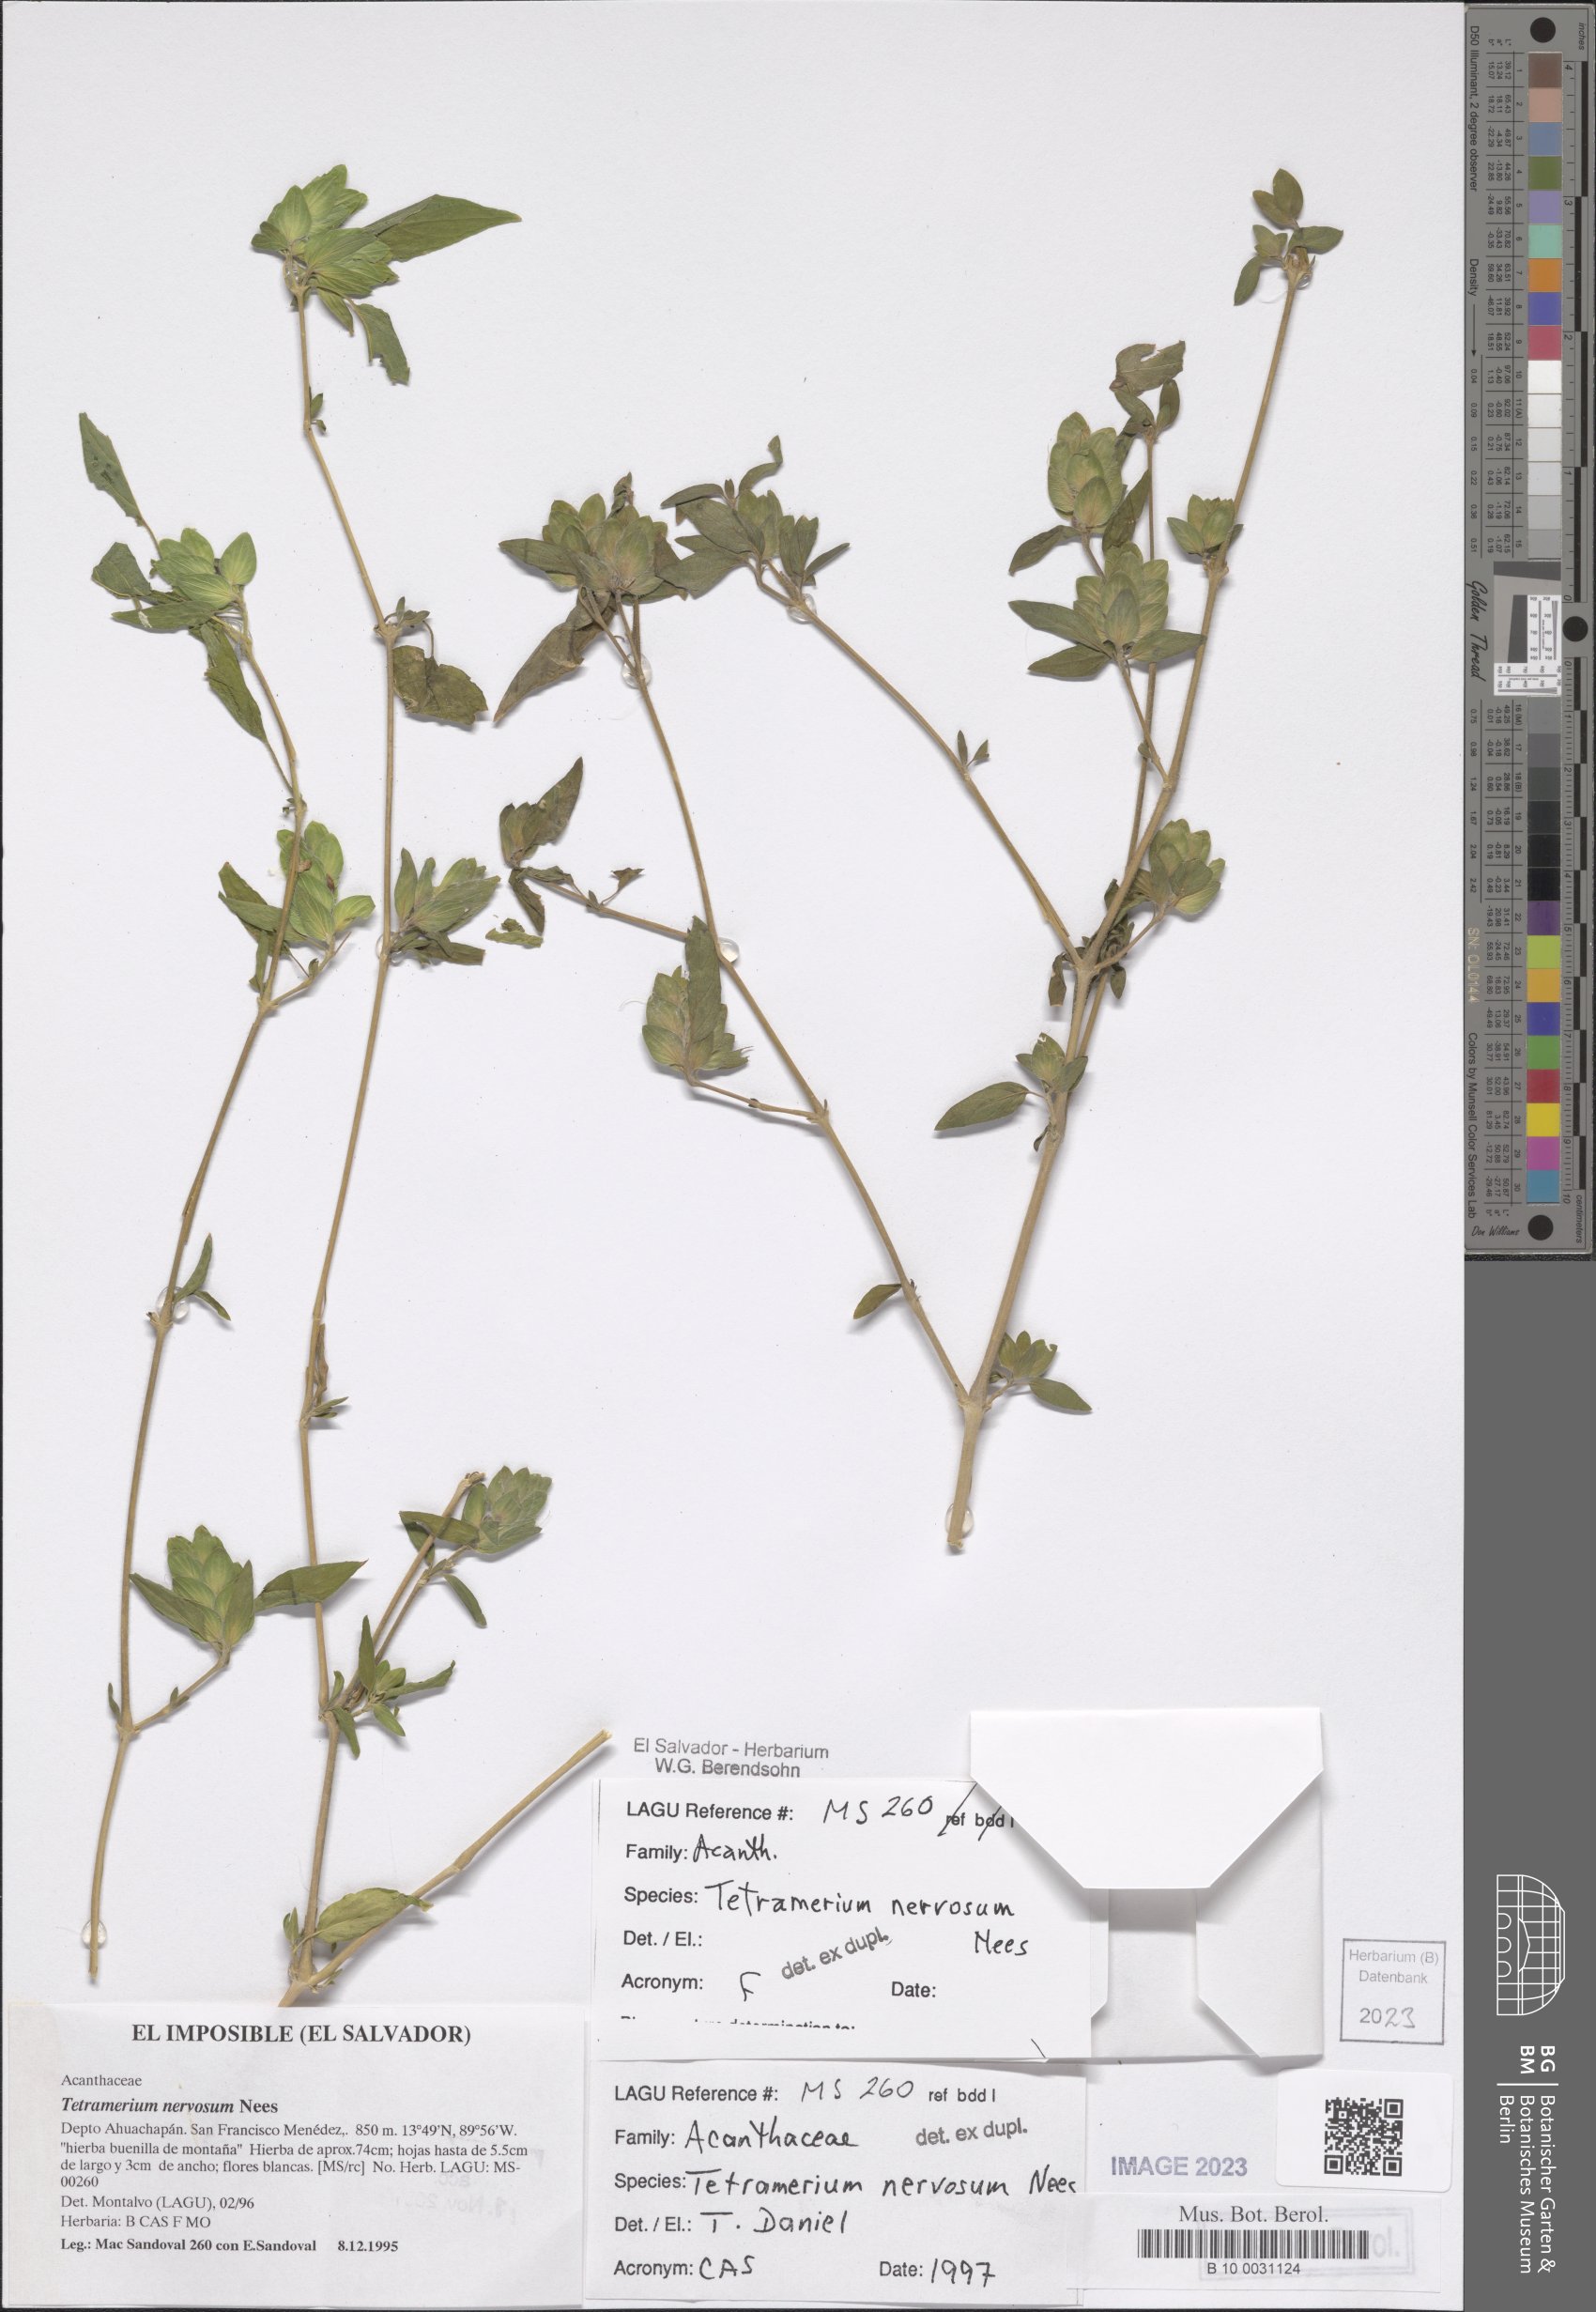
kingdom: Plantae
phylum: Tracheophyta
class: Magnoliopsida
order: Lamiales
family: Acanthaceae
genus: Tetramerium
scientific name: Tetramerium nervosum
